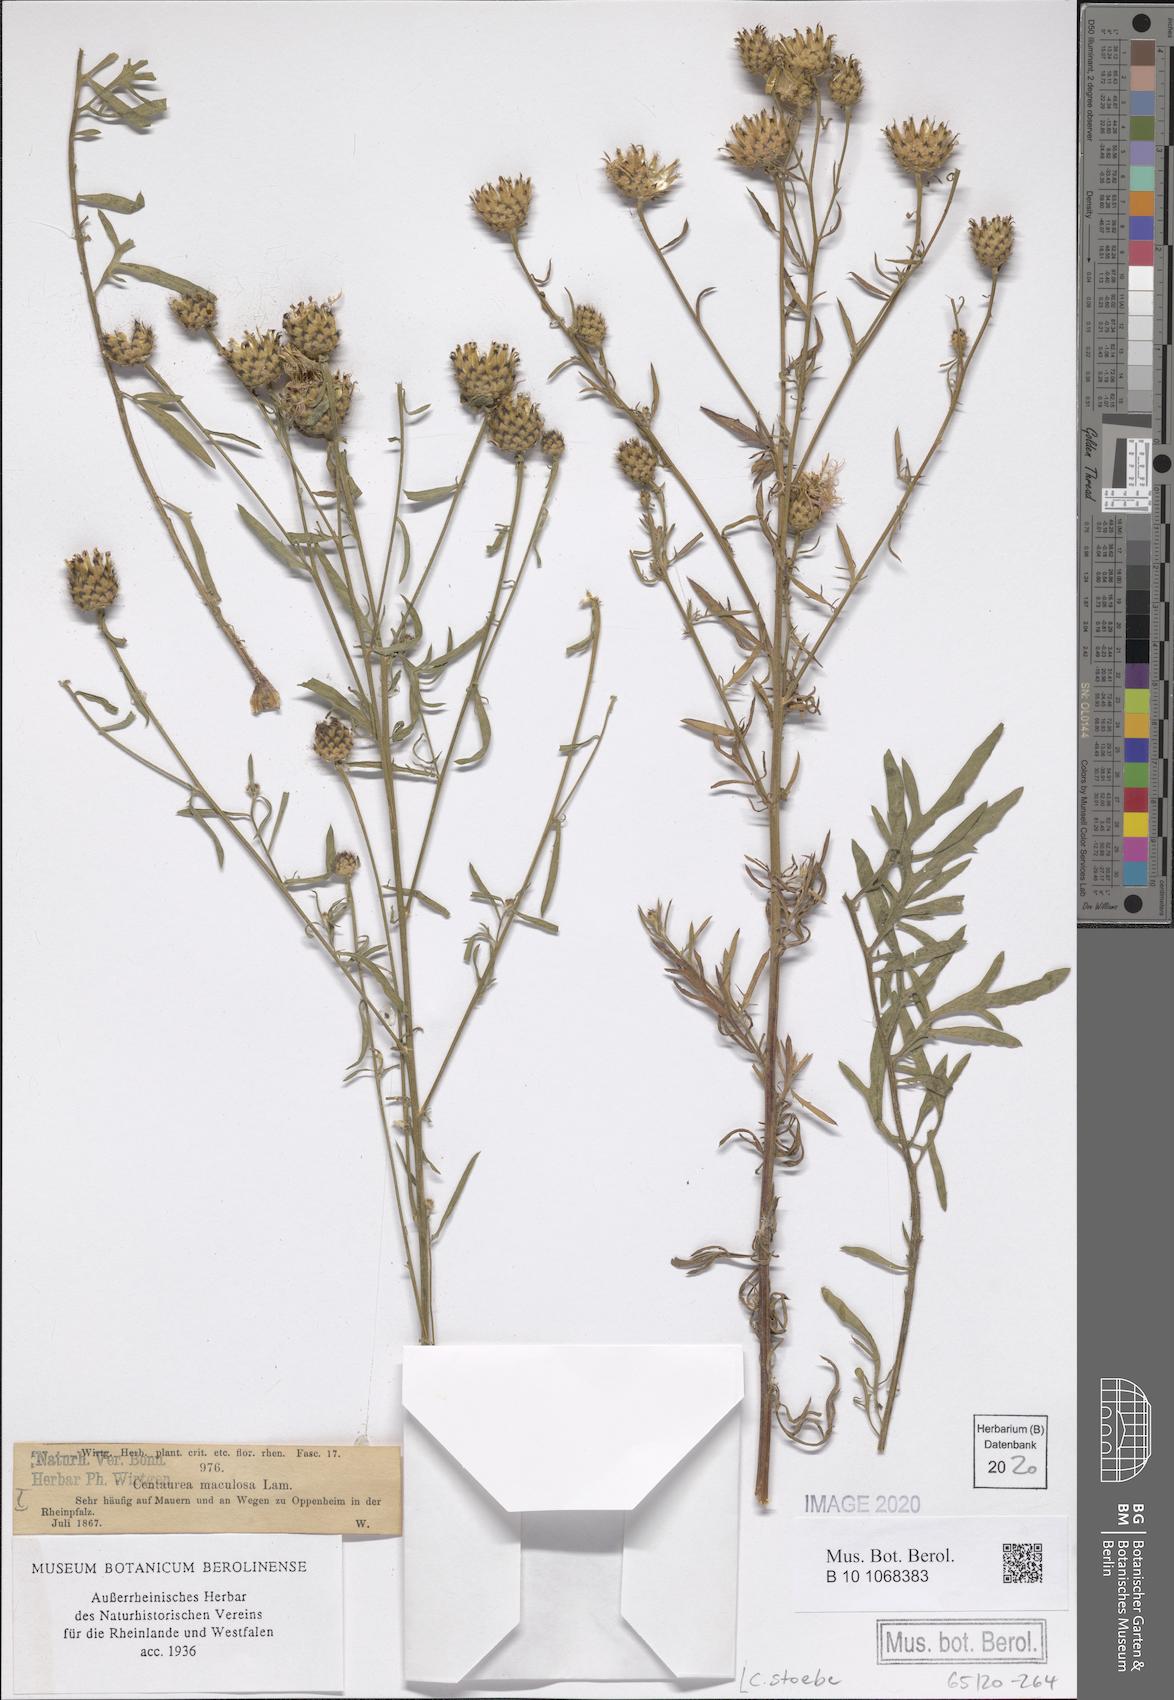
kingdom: Plantae
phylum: Tracheophyta
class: Magnoliopsida
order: Asterales
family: Asteraceae
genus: Centaurea
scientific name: Centaurea stoebe
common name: Spotted knapweed
